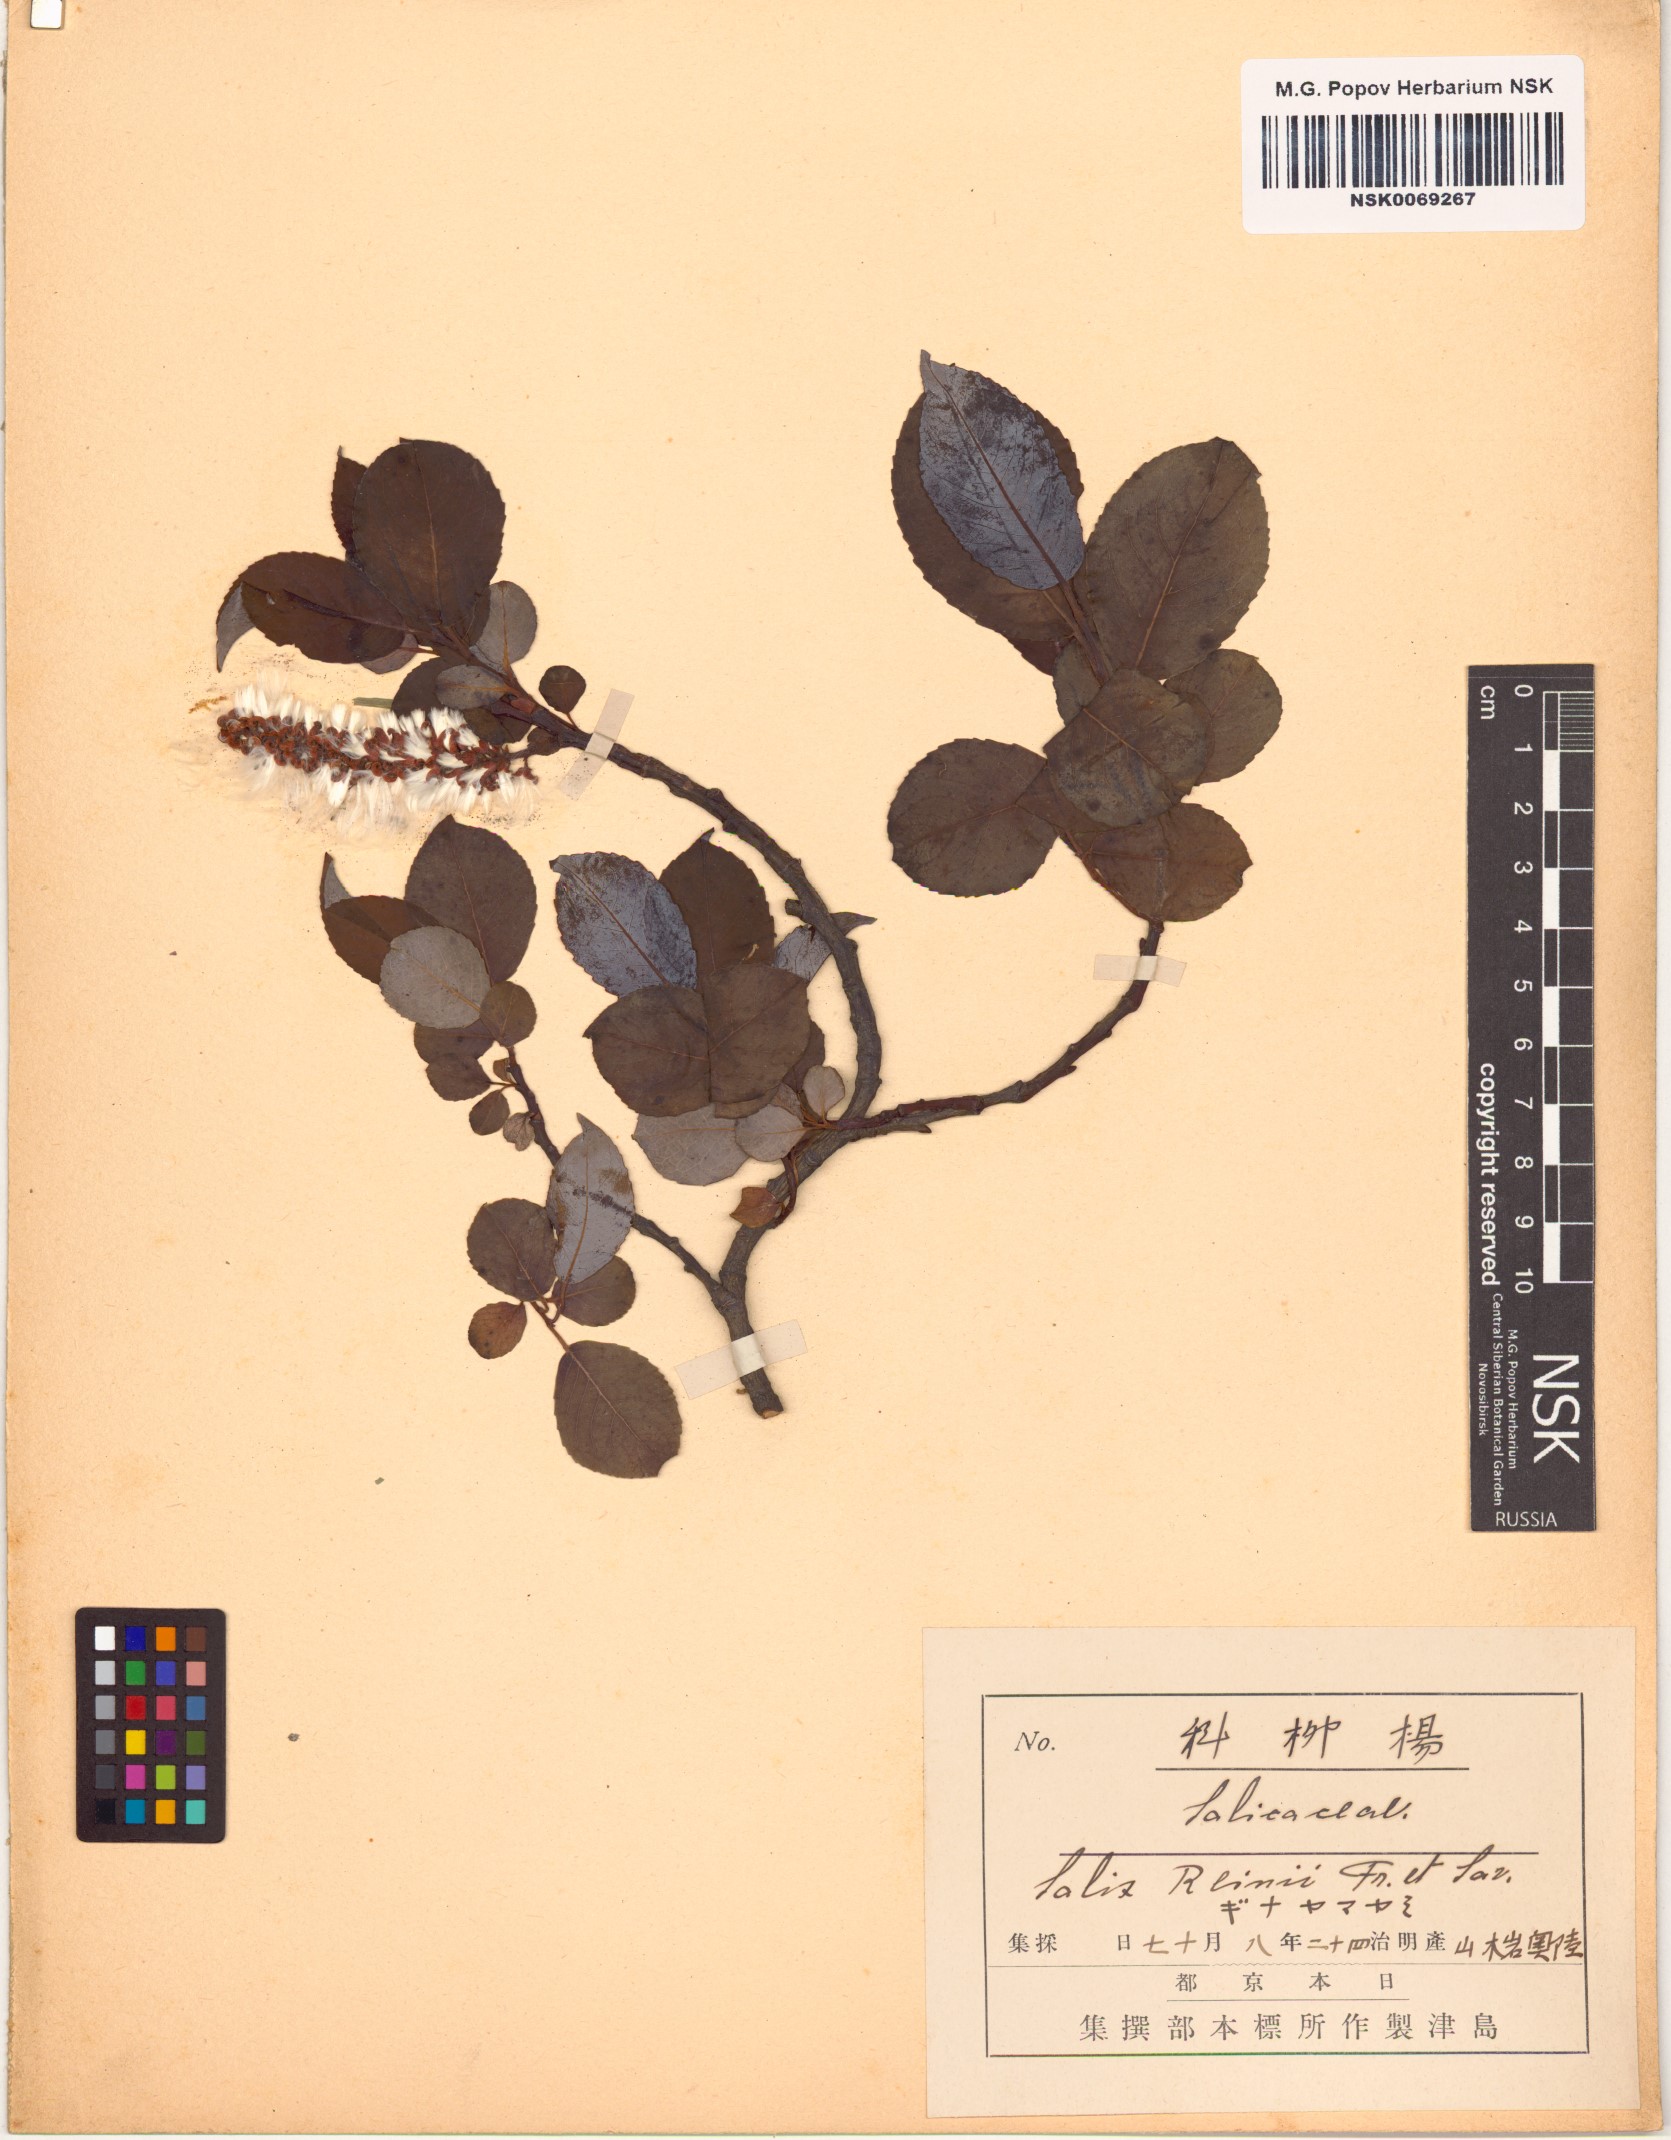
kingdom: Plantae
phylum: Tracheophyta
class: Magnoliopsida
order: Malpighiales
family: Salicaceae
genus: Salix
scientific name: Salix reinii
